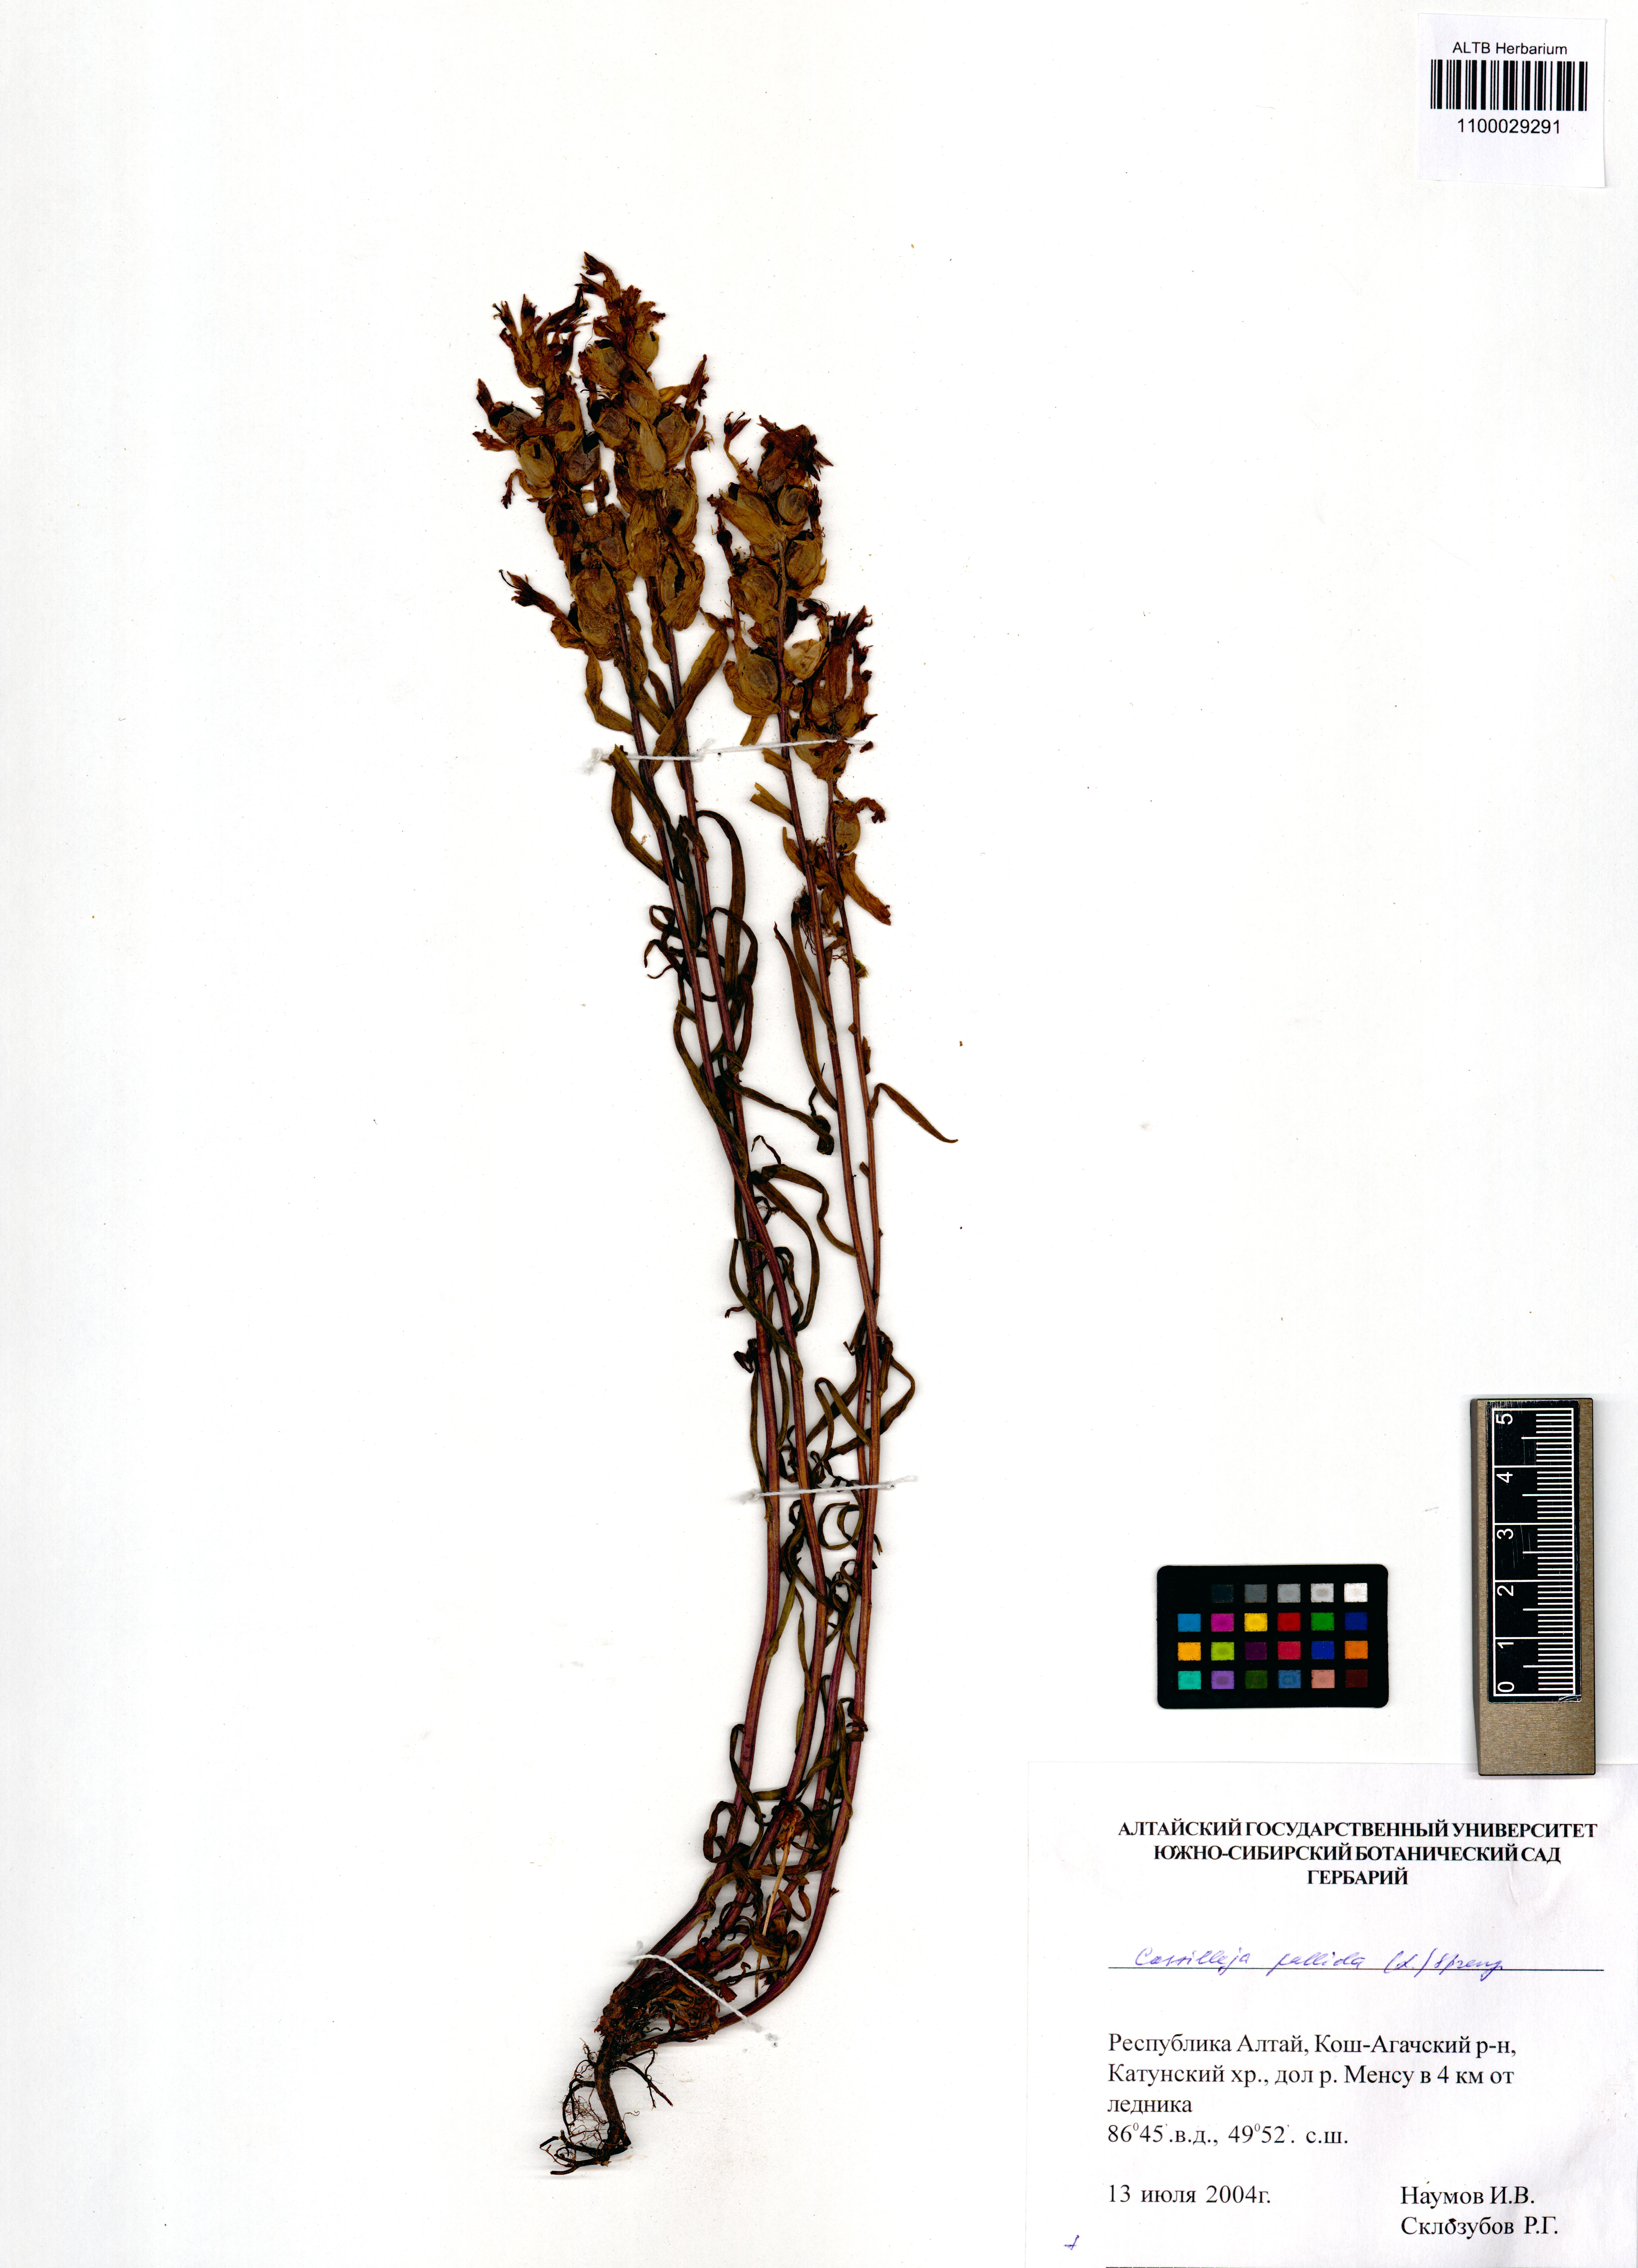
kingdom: Plantae
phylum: Tracheophyta
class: Magnoliopsida
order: Lamiales
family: Orobanchaceae
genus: Castilleja
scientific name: Castilleja pallida
